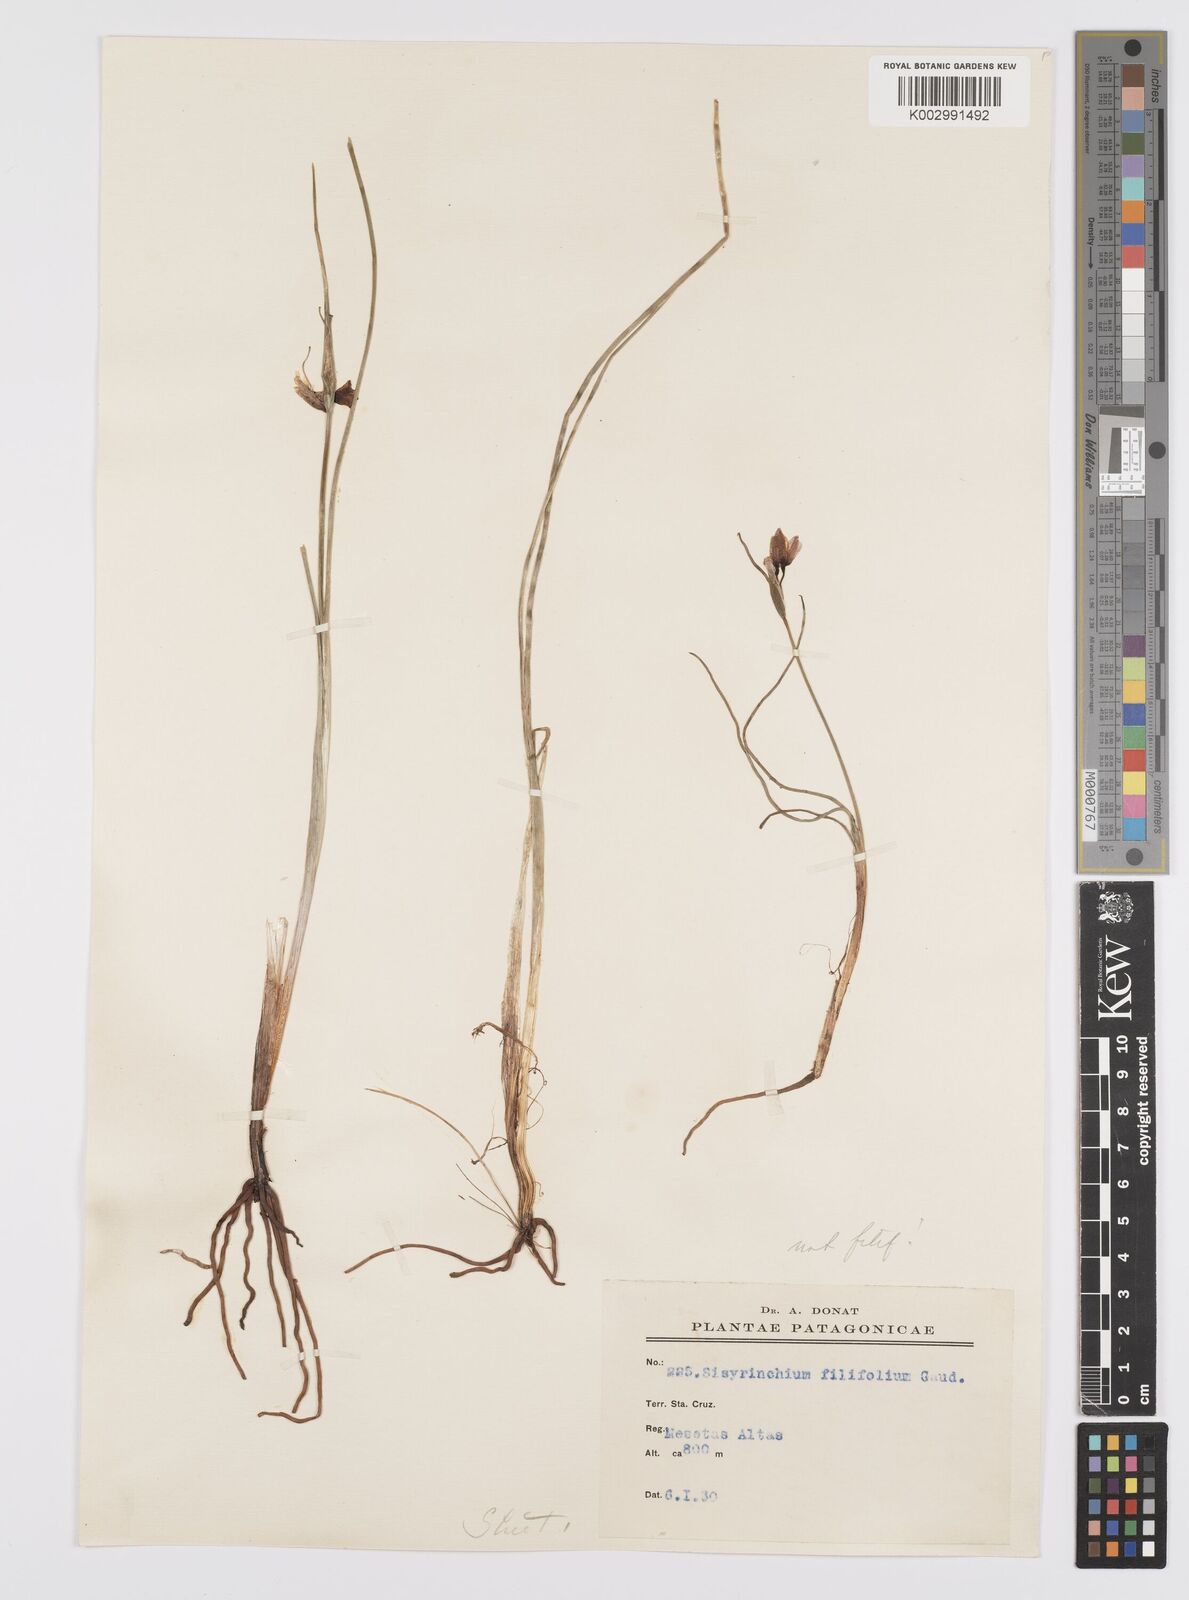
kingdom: Plantae
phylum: Tracheophyta
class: Liliopsida
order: Asparagales
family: Iridaceae
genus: Olsynium
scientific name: Olsynium
